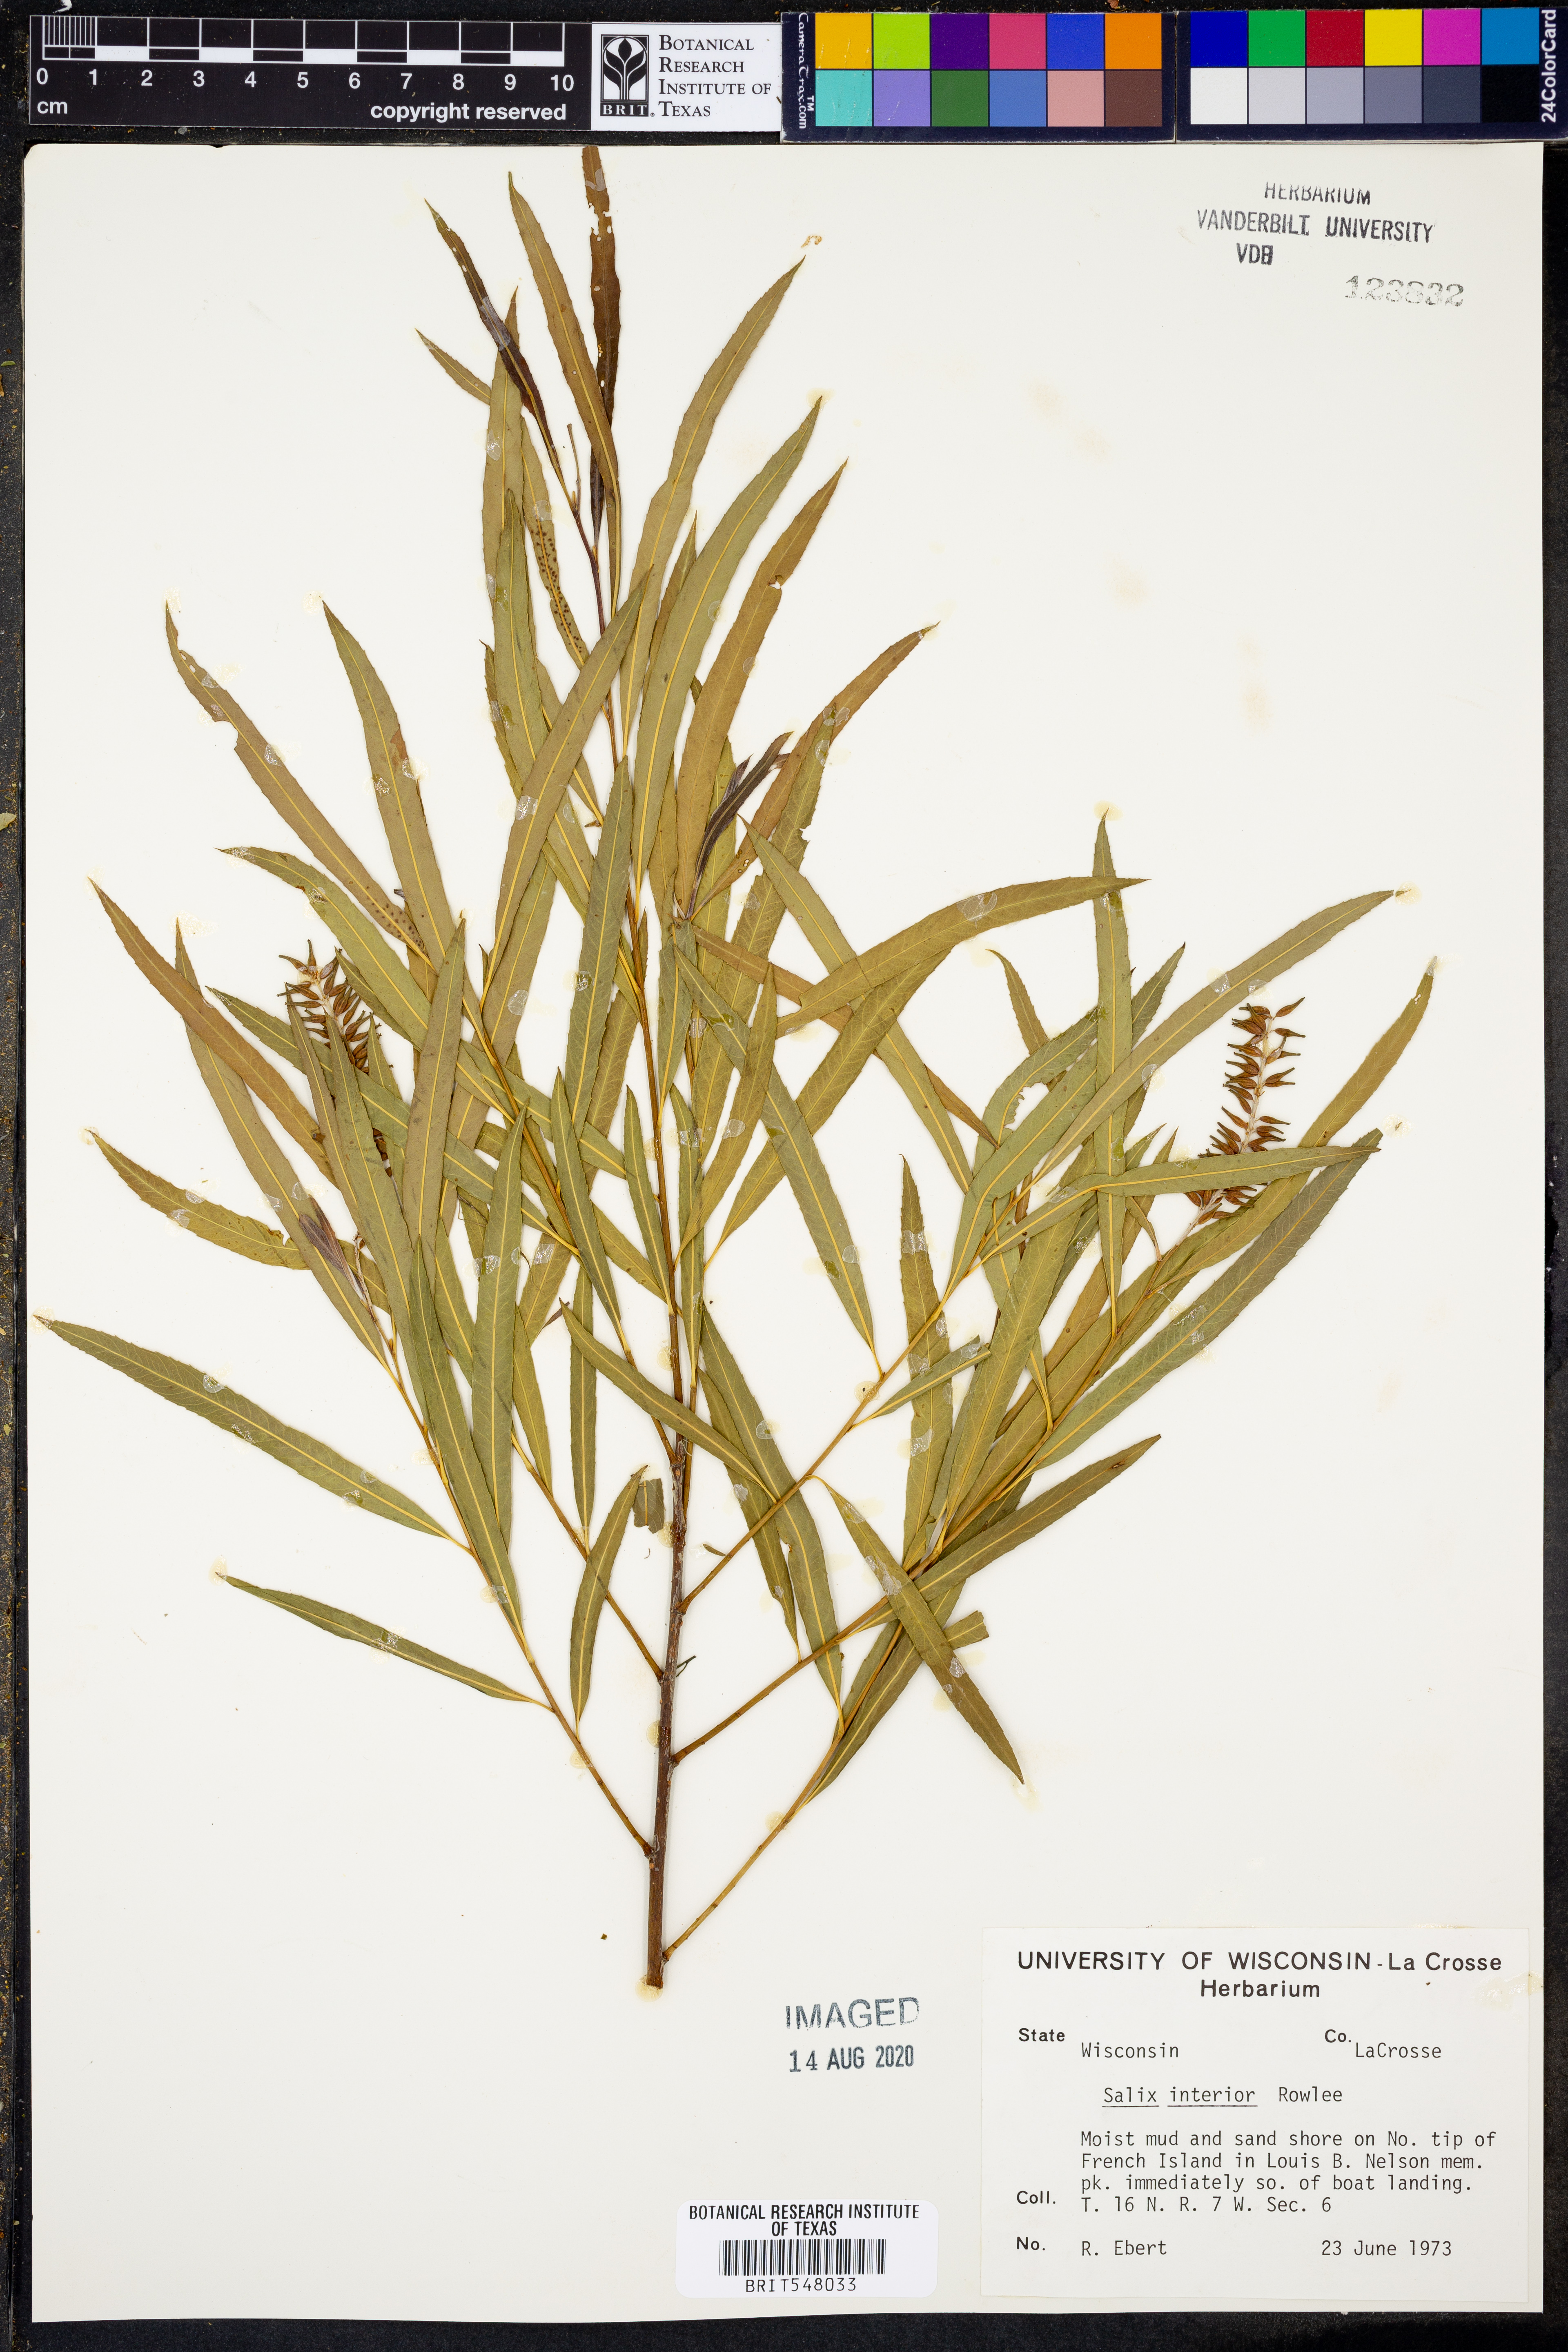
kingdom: Plantae
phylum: Tracheophyta
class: Magnoliopsida
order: Malpighiales
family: Salicaceae
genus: Salix
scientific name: Salix interior
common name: Sandbar willow
